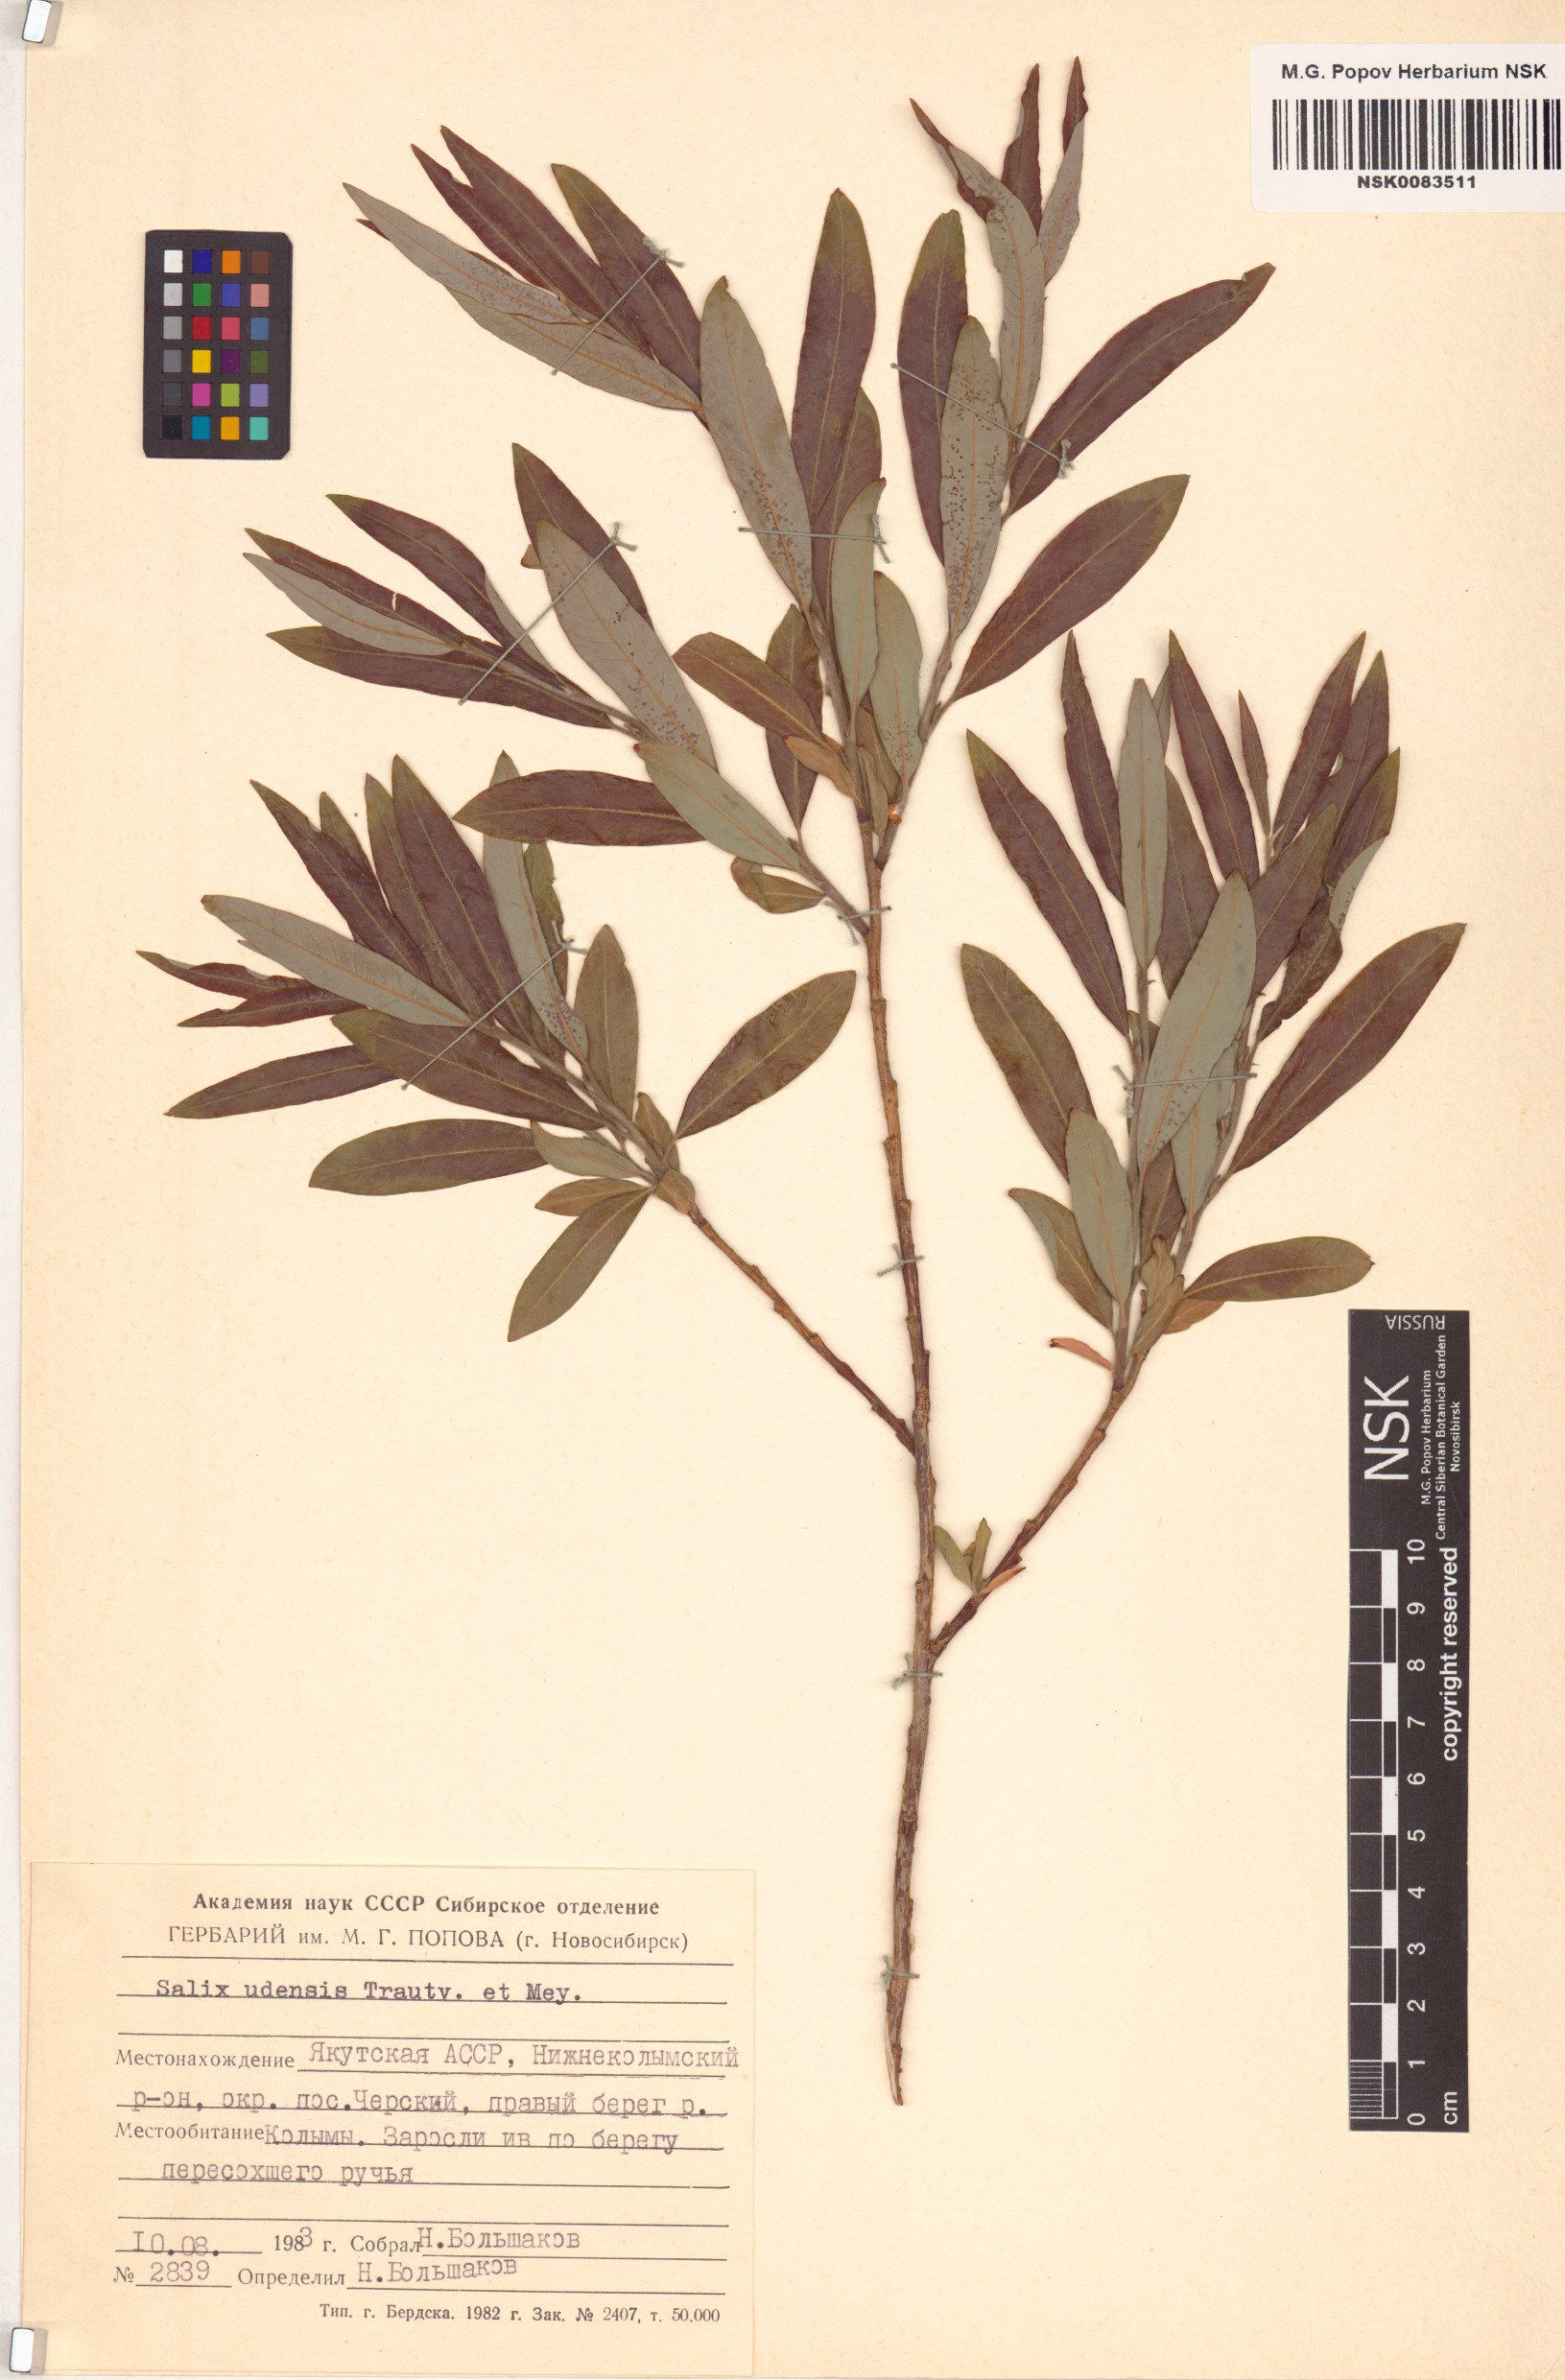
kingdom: Plantae
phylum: Tracheophyta
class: Magnoliopsida
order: Malpighiales
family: Salicaceae
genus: Salix
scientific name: Salix udensis
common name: Sachalin willow
